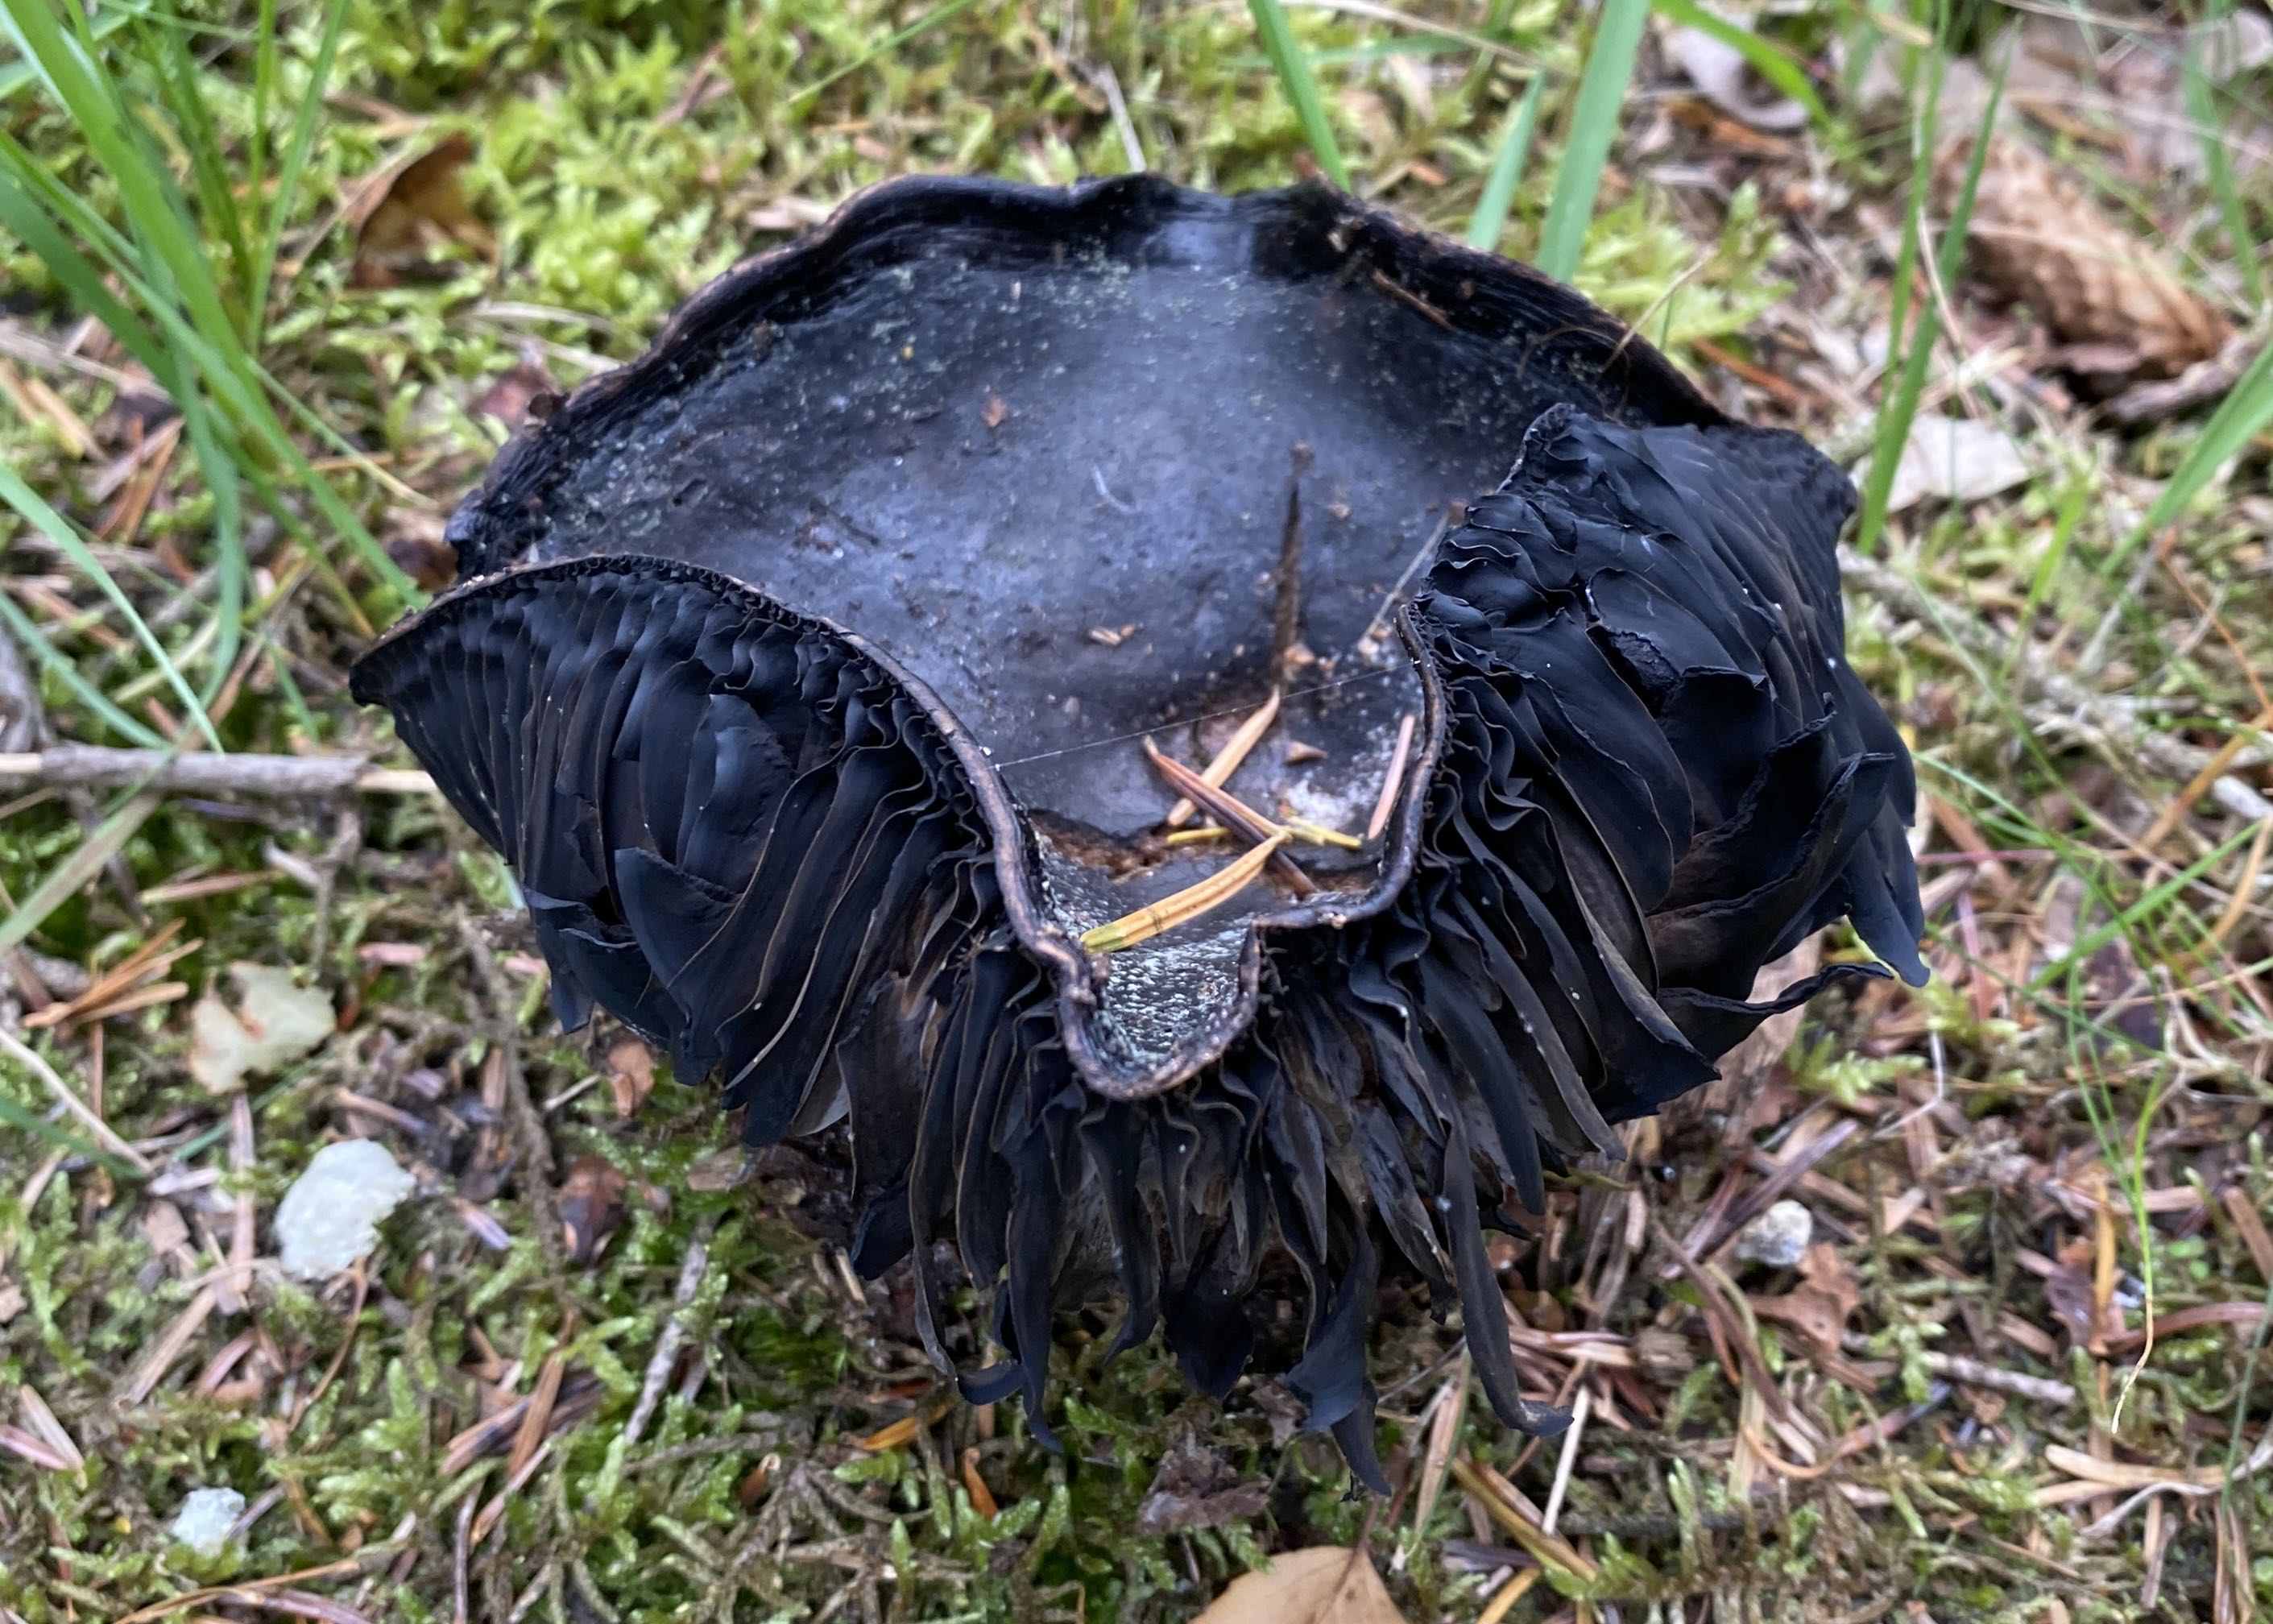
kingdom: Fungi
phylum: Basidiomycota
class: Agaricomycetes
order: Russulales
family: Russulaceae
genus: Russula
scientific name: Russula adusta
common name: sværtende skørhat
